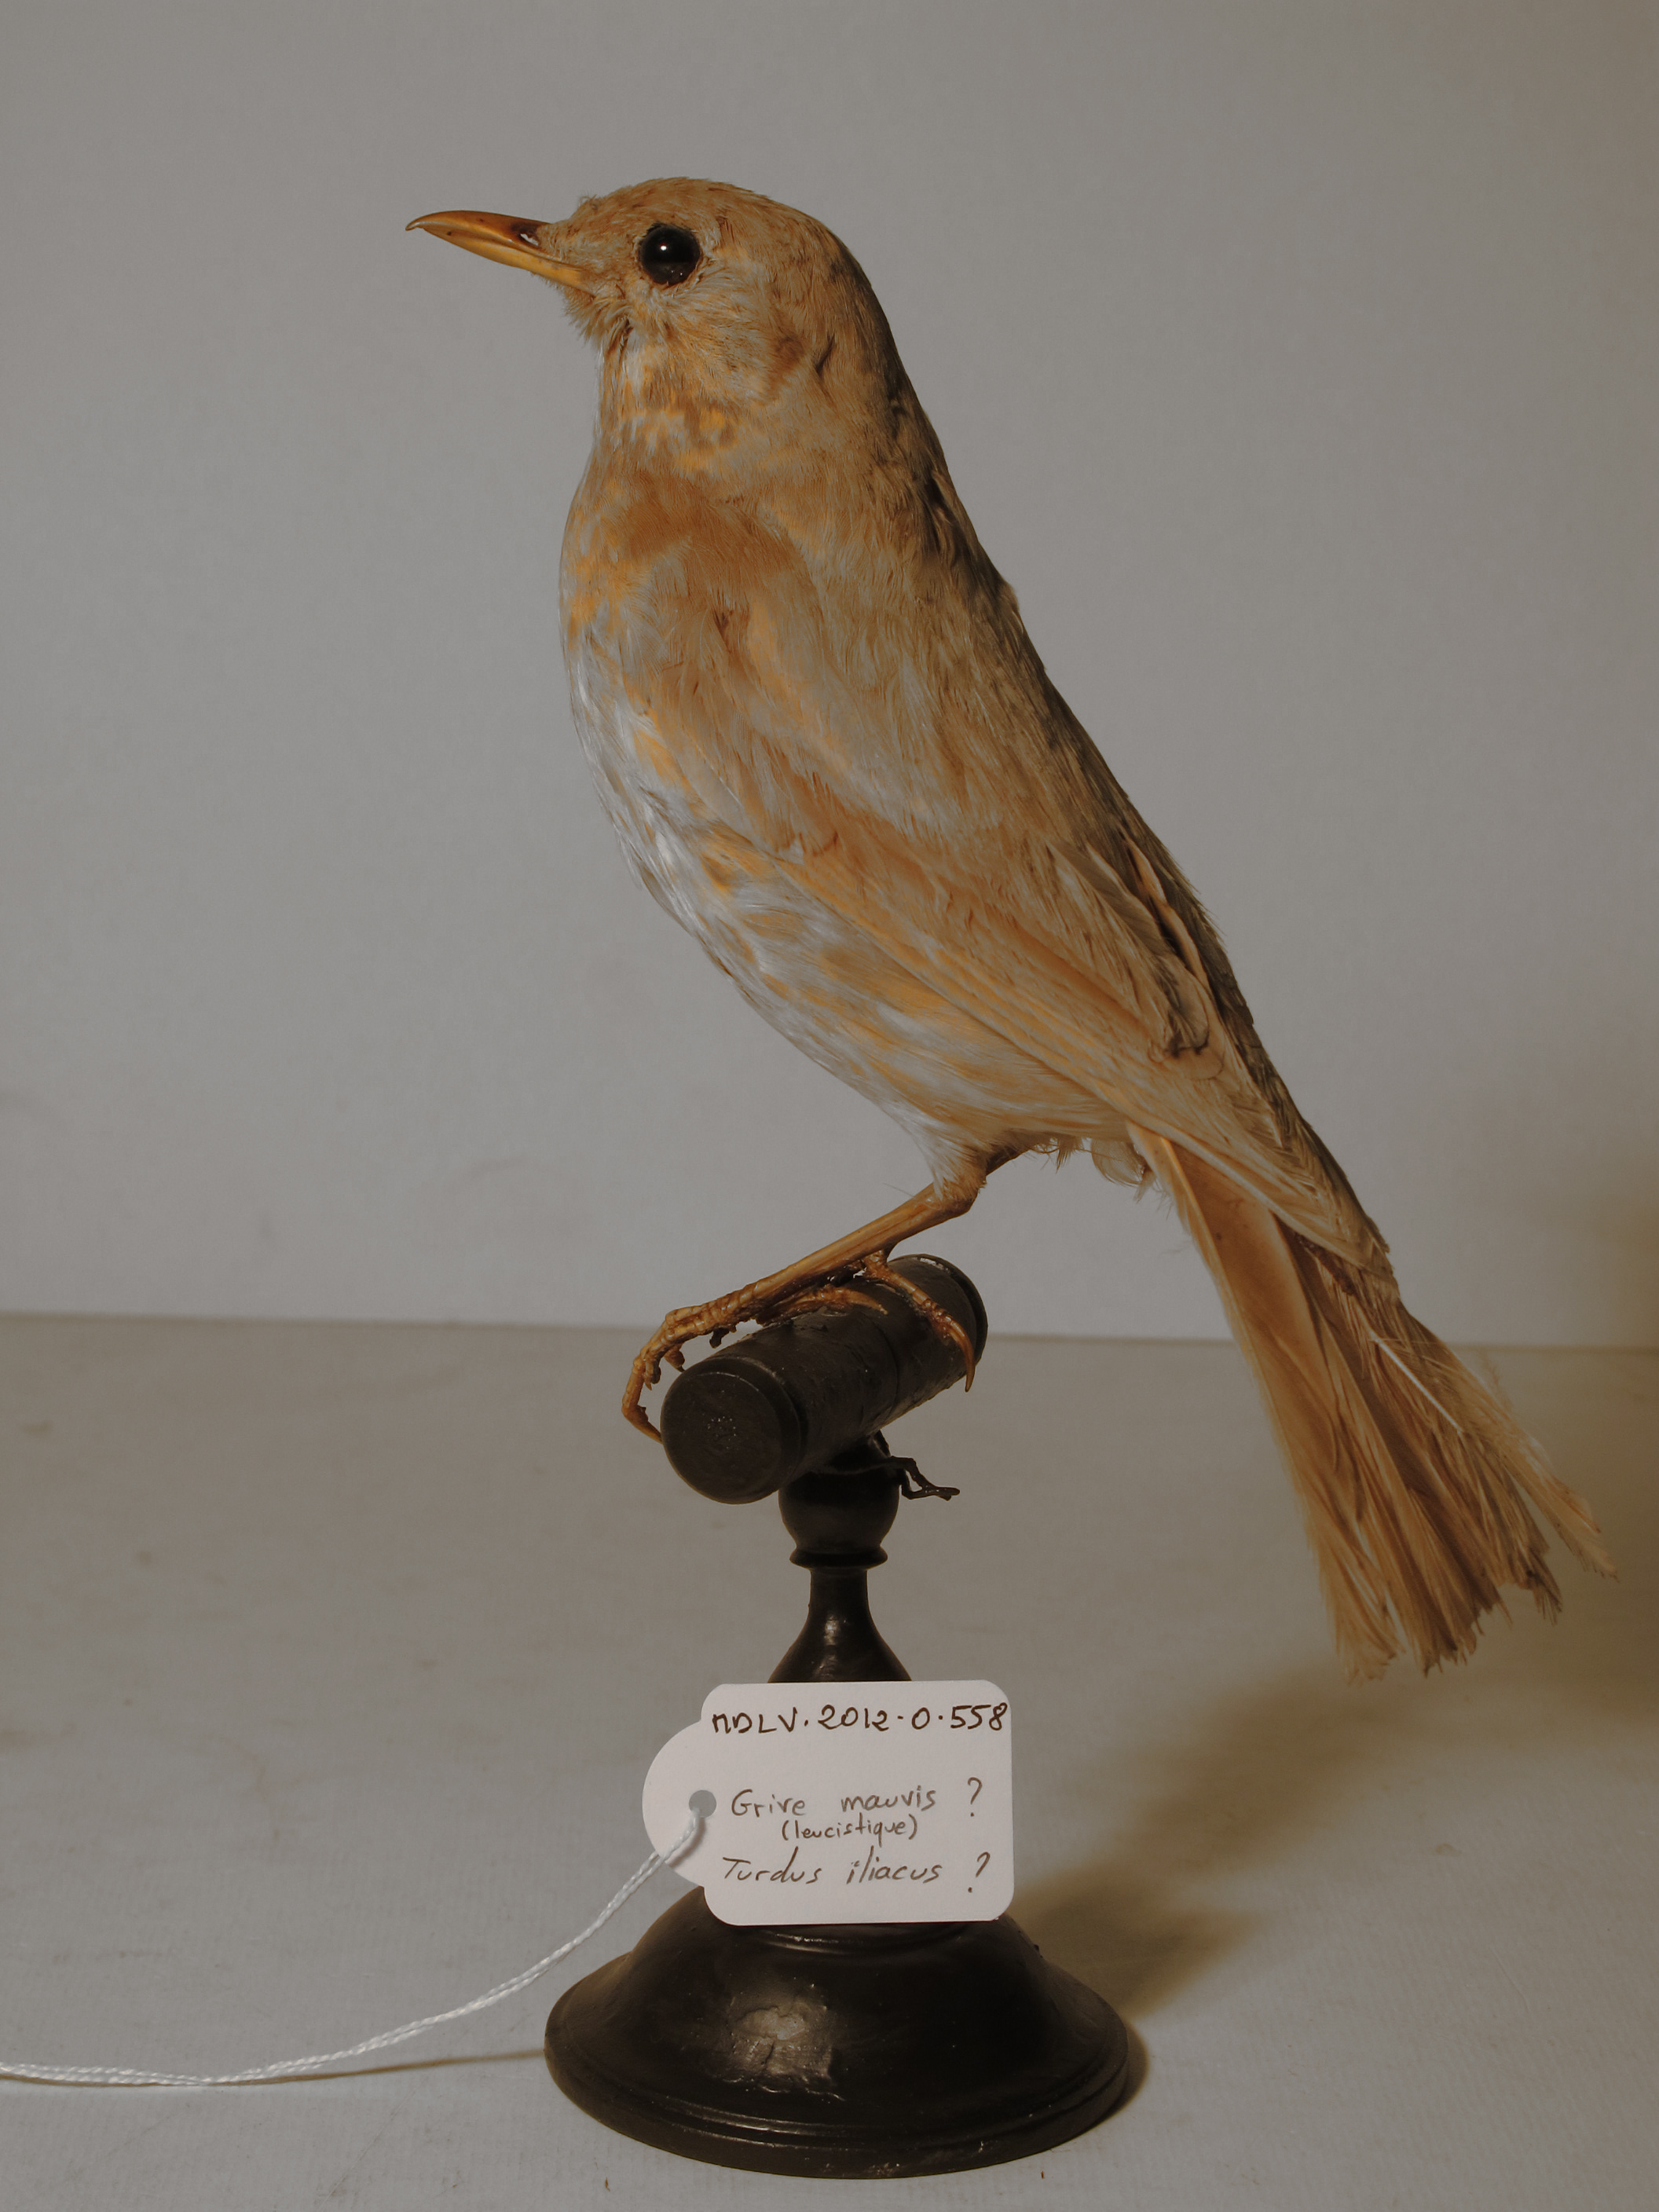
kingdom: Animalia
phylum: Chordata
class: Aves
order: Passeriformes
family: Turdidae
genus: Turdus
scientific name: Turdus
